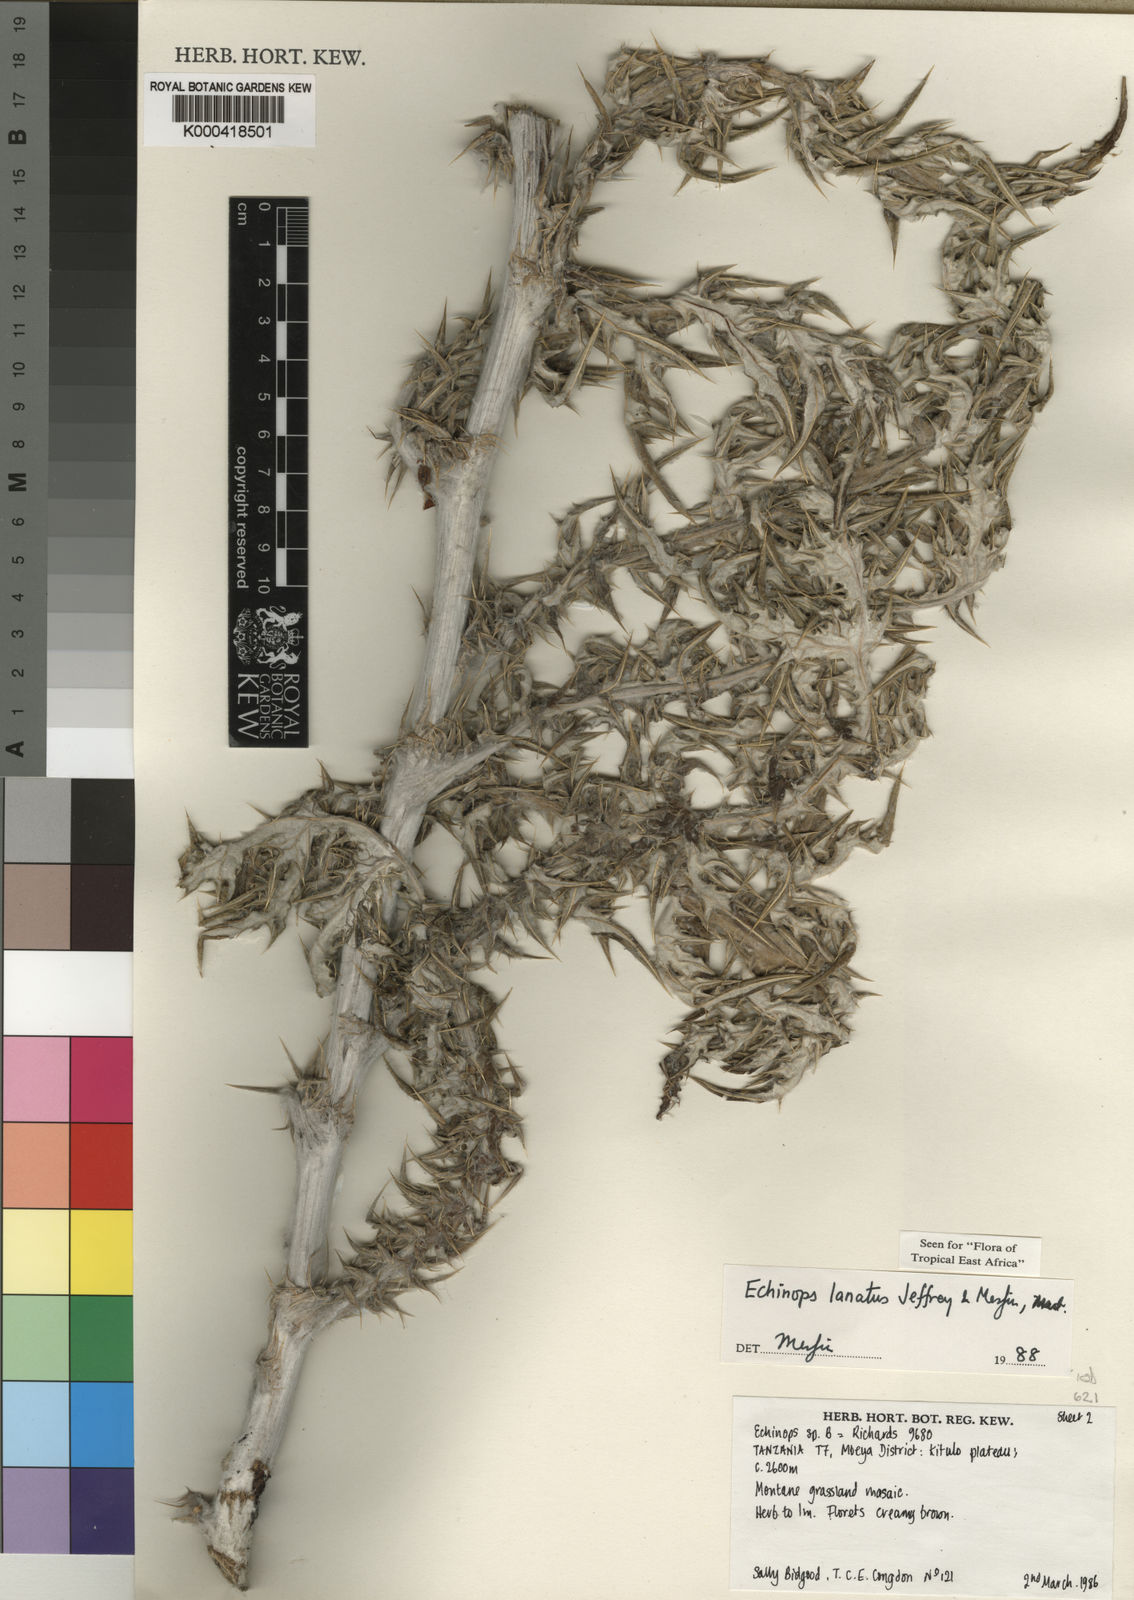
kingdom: Plantae
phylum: Tracheophyta
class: Magnoliopsida
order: Asterales
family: Asteraceae
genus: Echinops
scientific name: Echinops lanatus
